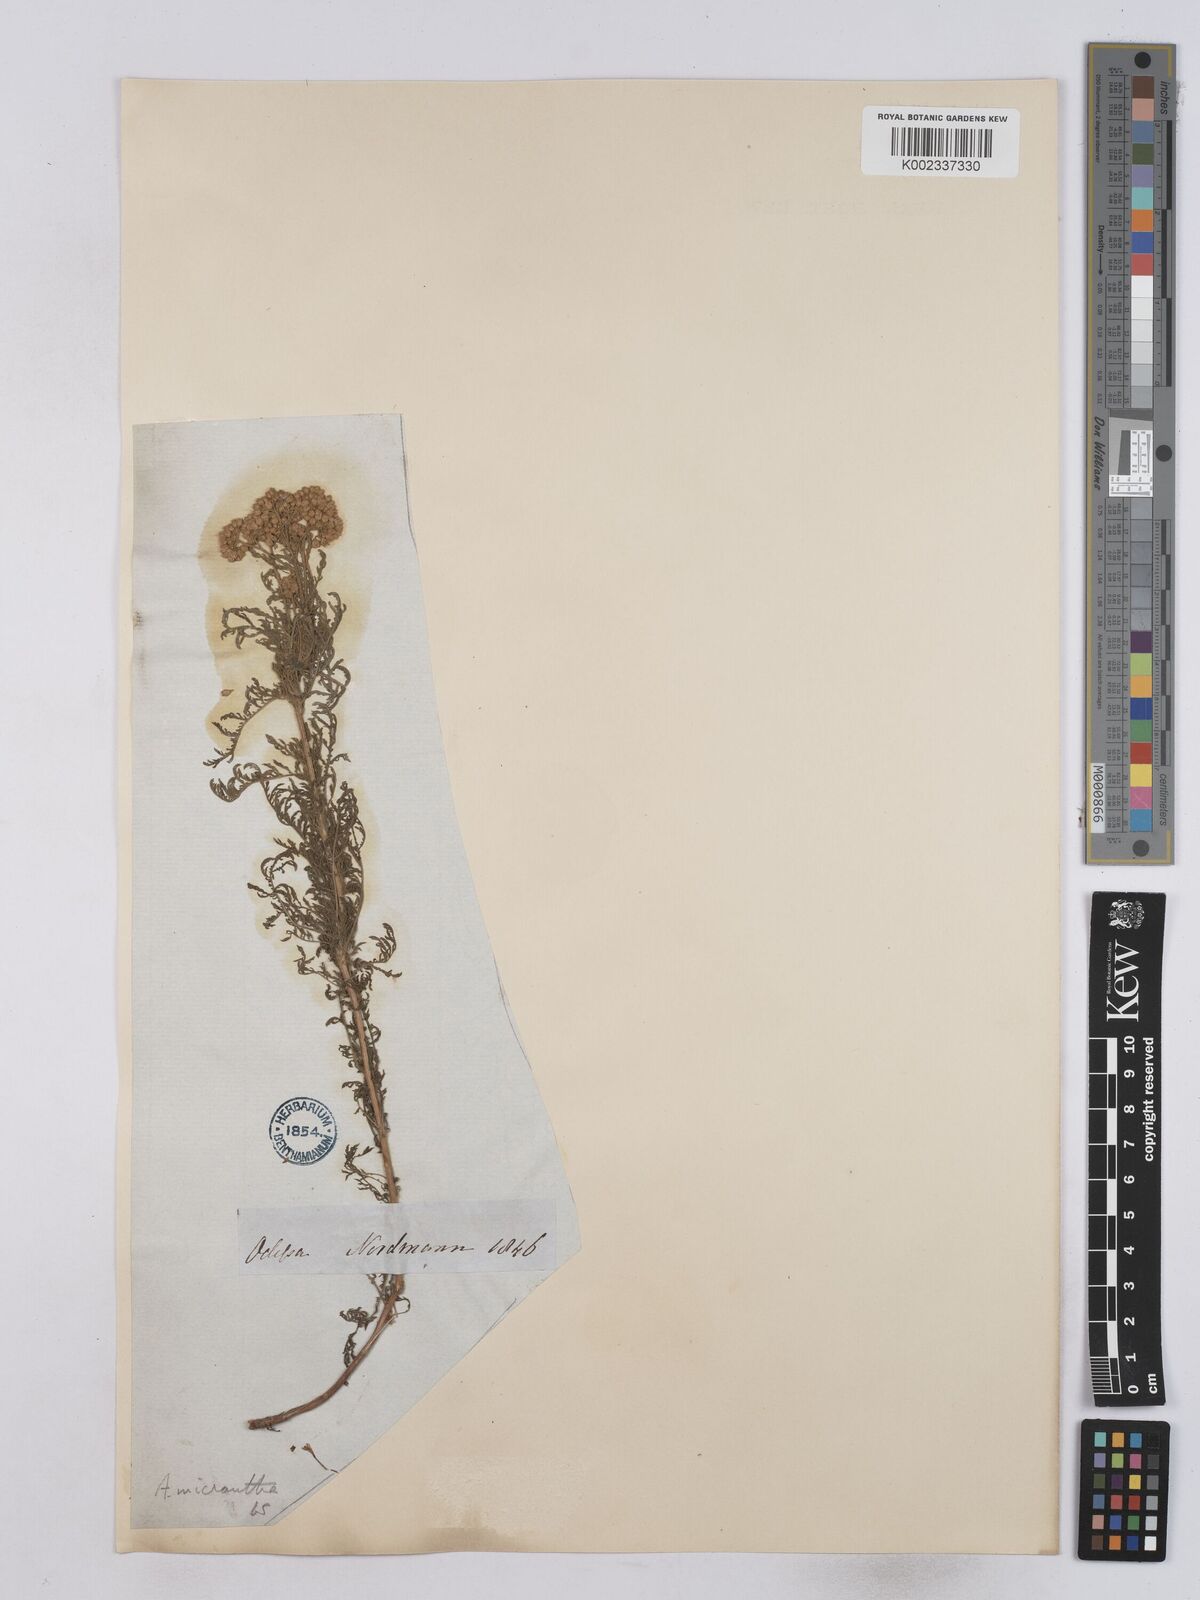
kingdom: Plantae
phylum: Tracheophyta
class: Magnoliopsida
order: Asterales
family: Asteraceae
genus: Achillea
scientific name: Achillea micrantha
